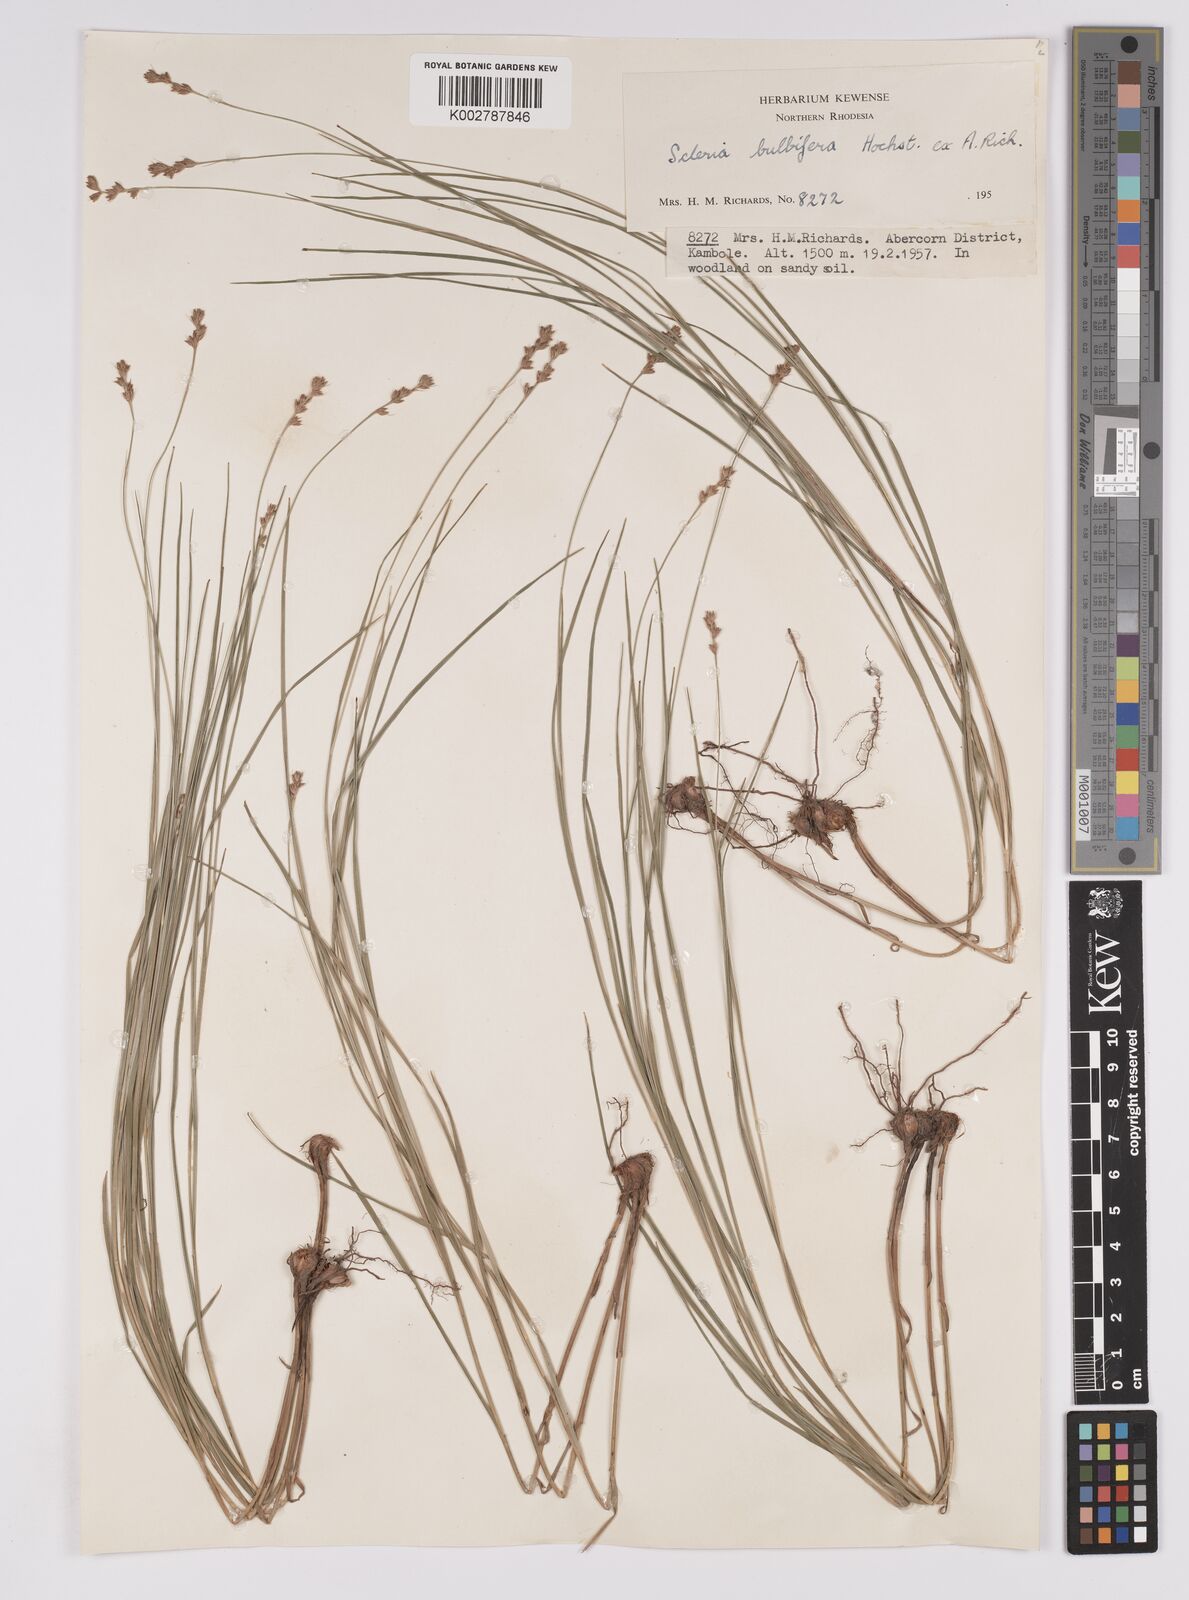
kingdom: Plantae
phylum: Tracheophyta
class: Liliopsida
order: Poales
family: Cyperaceae
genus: Scleria
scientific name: Scleria bulbifera
